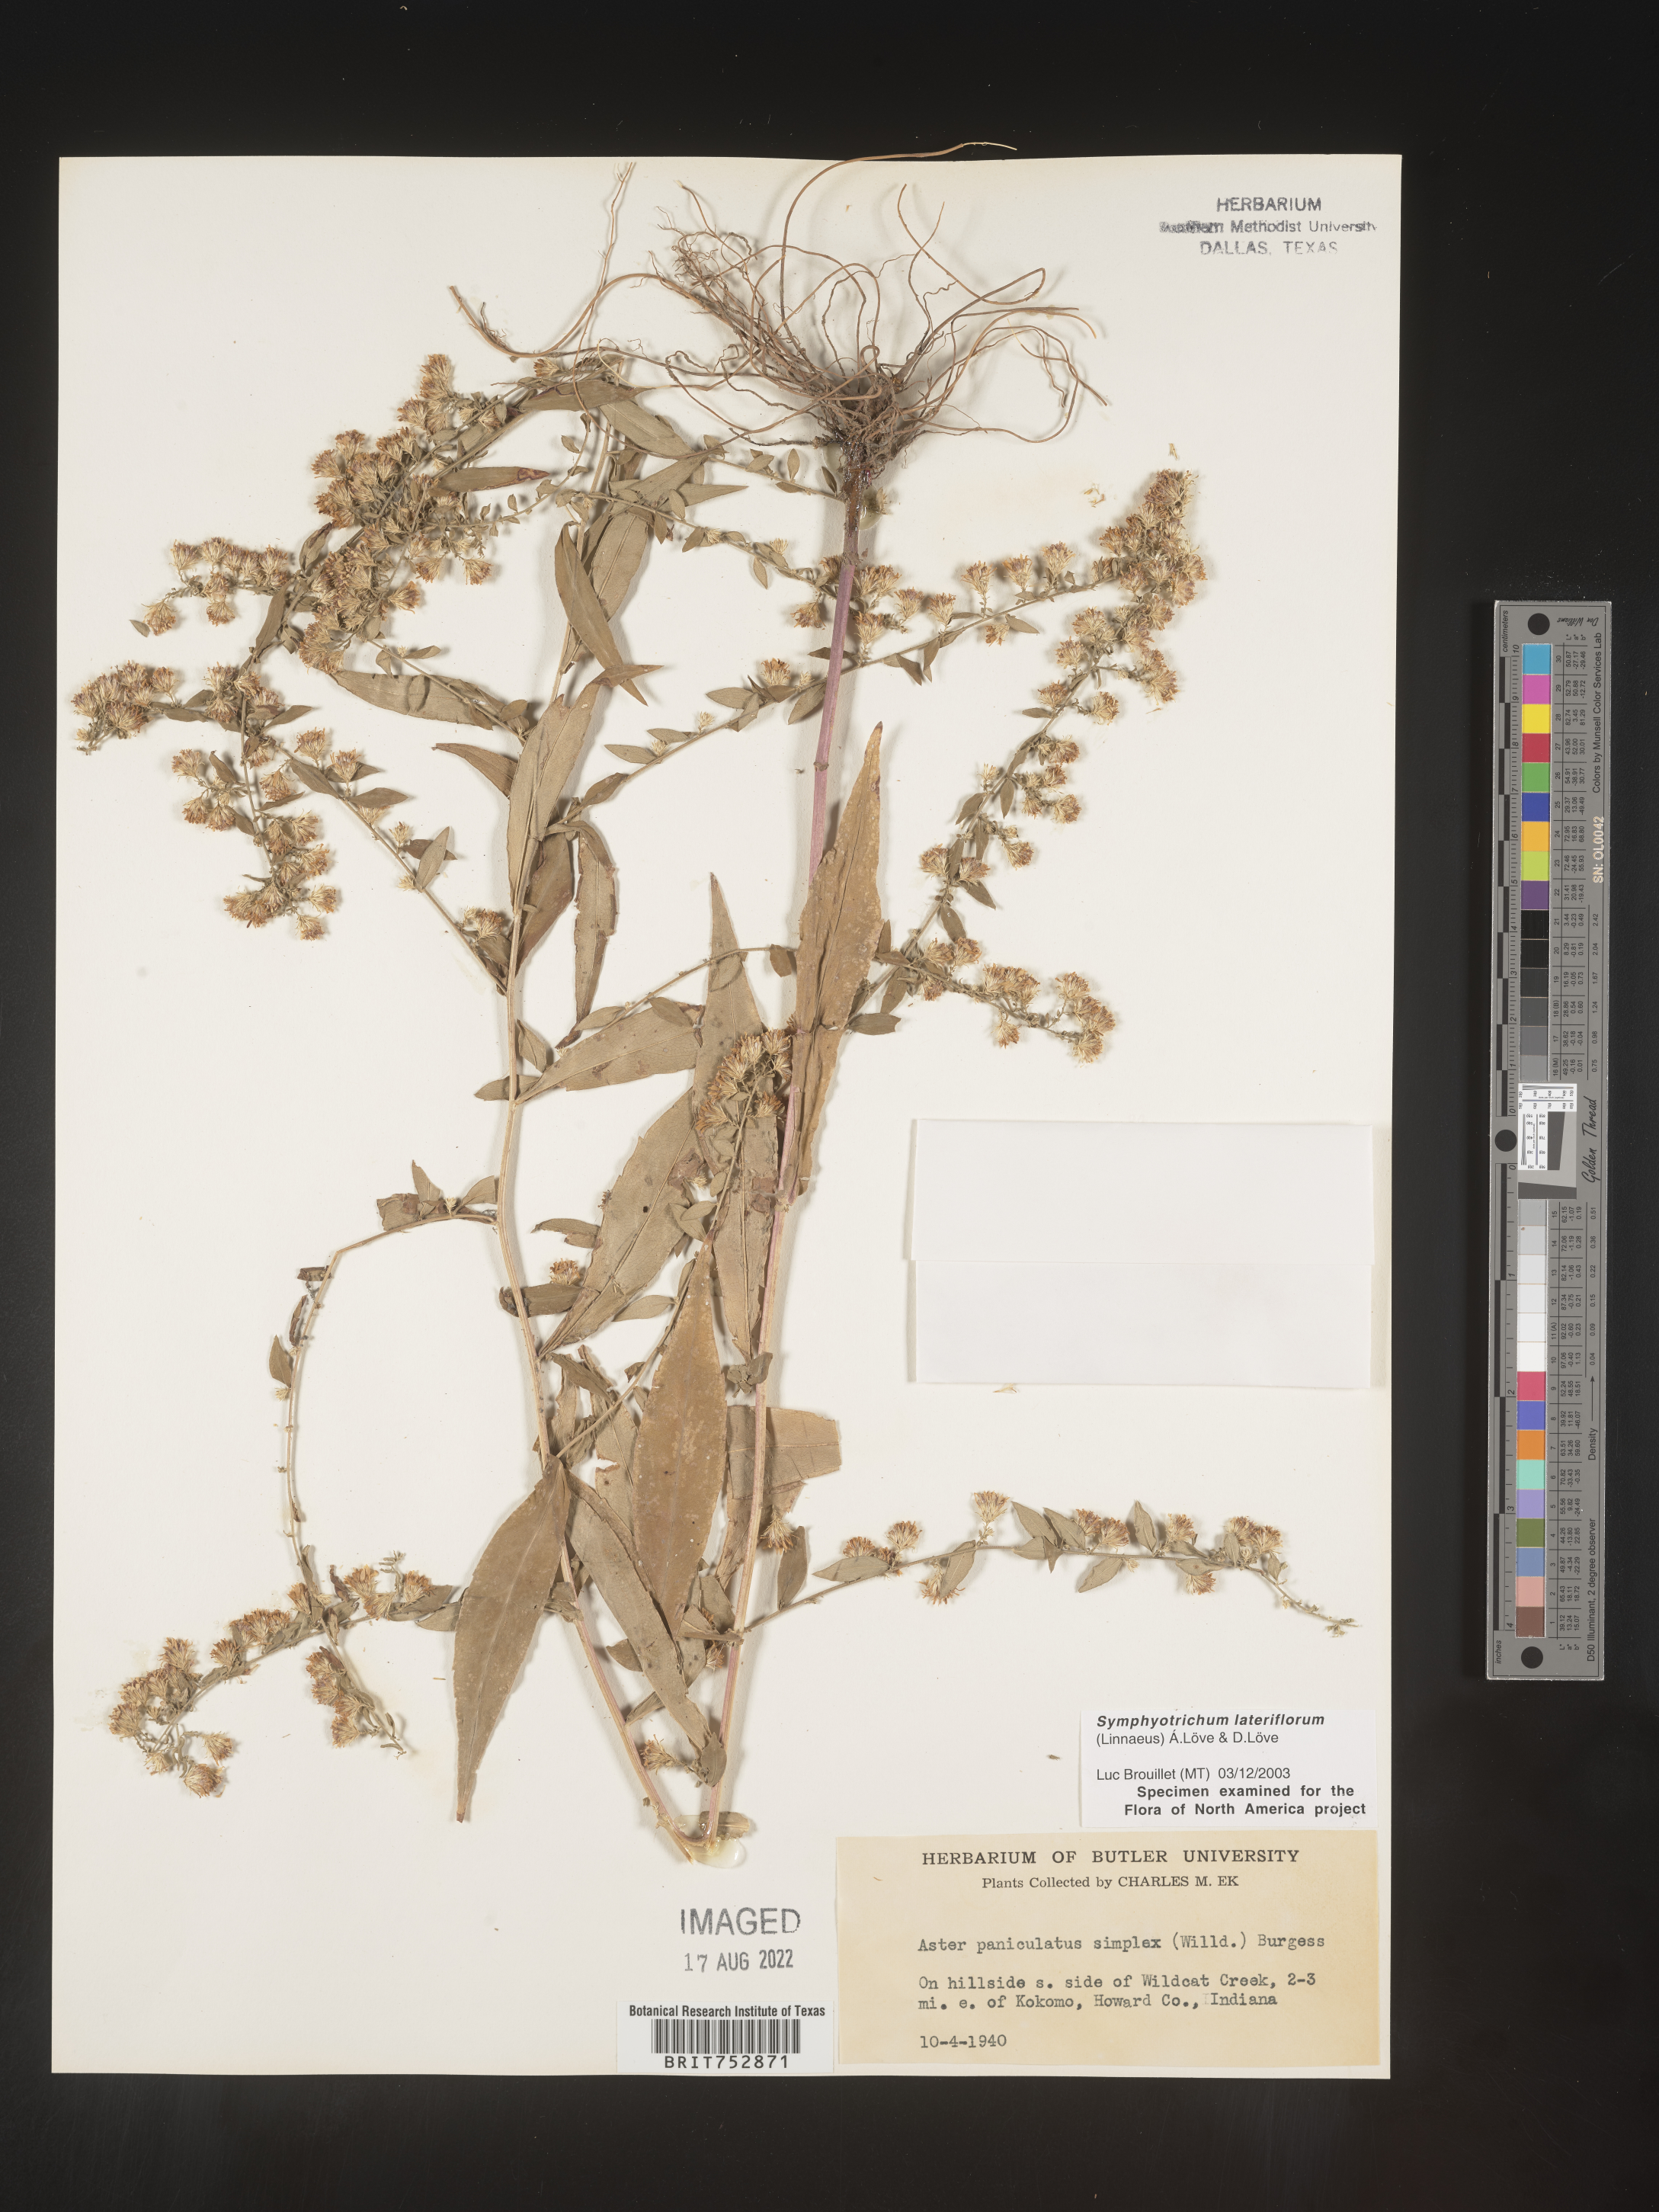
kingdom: Plantae
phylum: Tracheophyta
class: Magnoliopsida
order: Asterales
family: Asteraceae
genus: Symphyotrichum
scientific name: Symphyotrichum lateriflorum
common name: Calico aster
